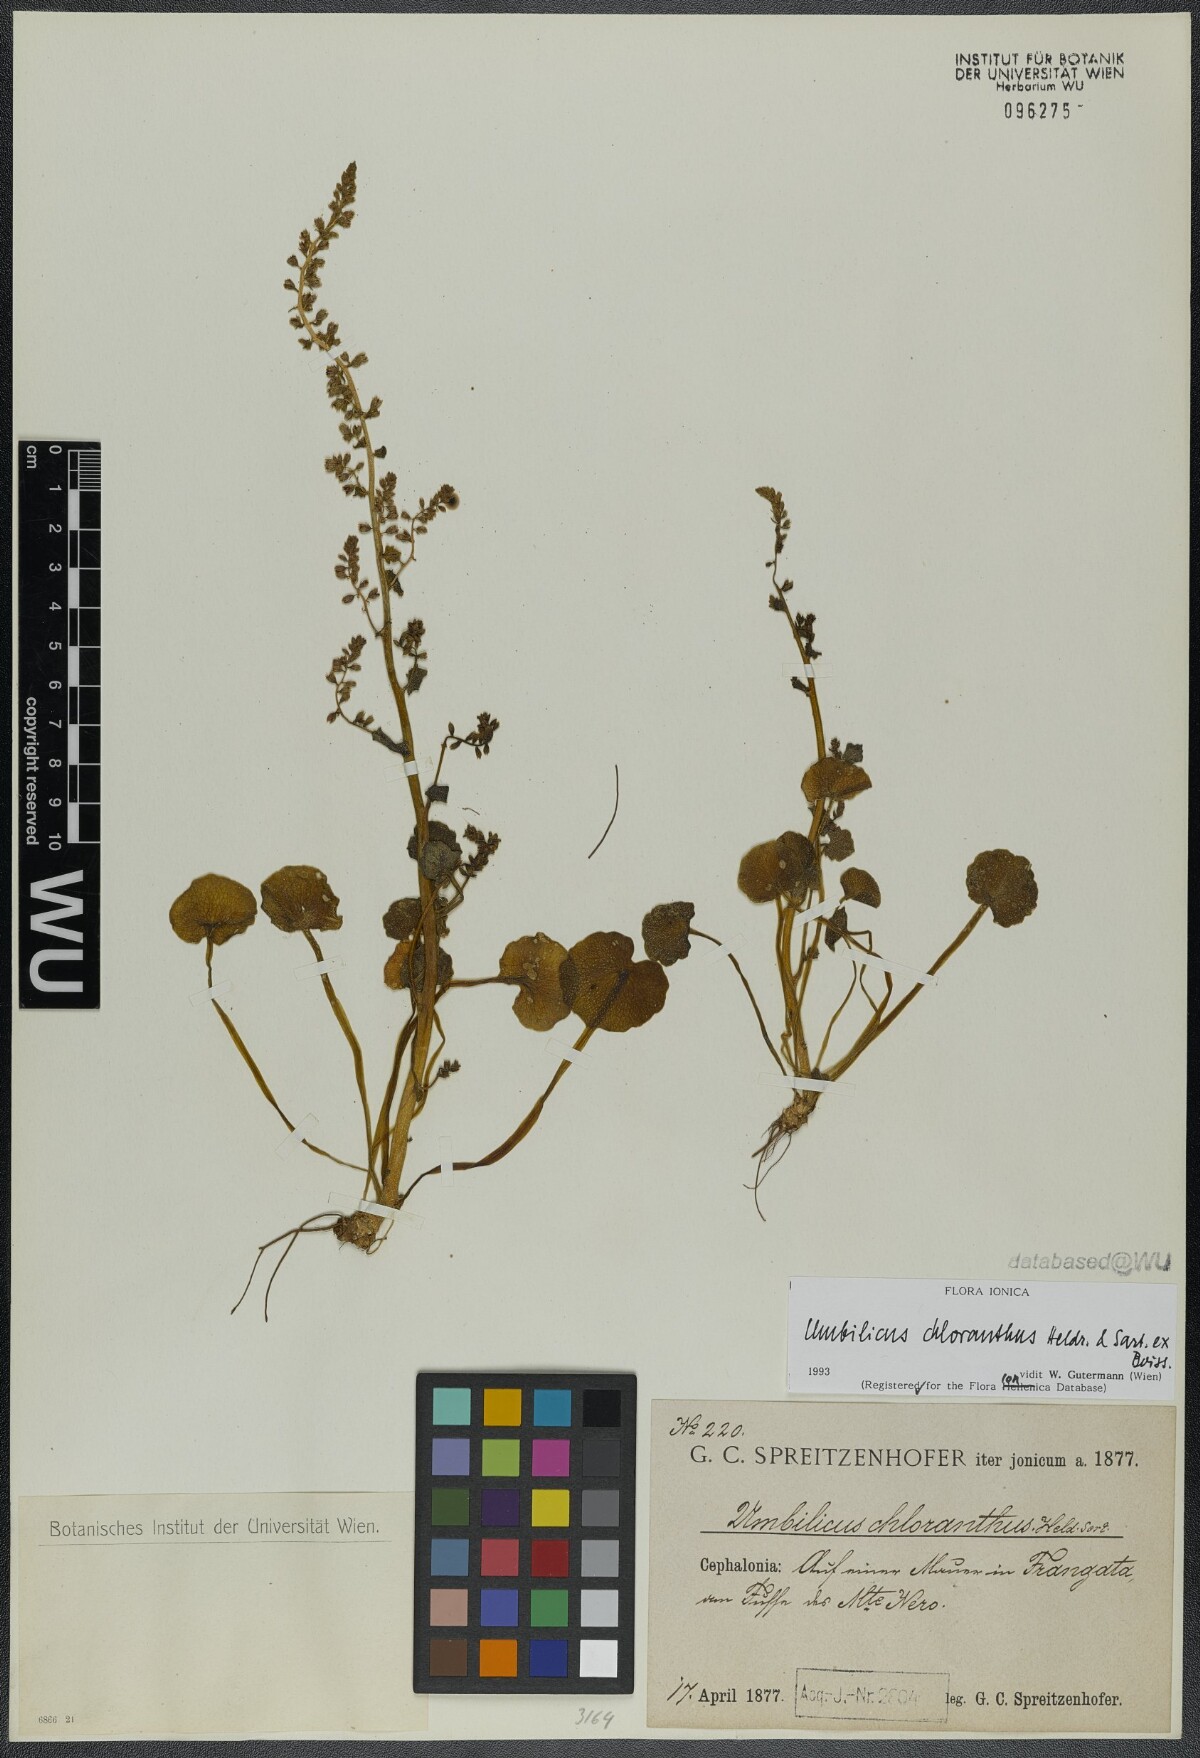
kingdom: Plantae
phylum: Tracheophyta
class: Magnoliopsida
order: Saxifragales
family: Crassulaceae
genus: Umbilicus
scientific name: Umbilicus chloranthus
